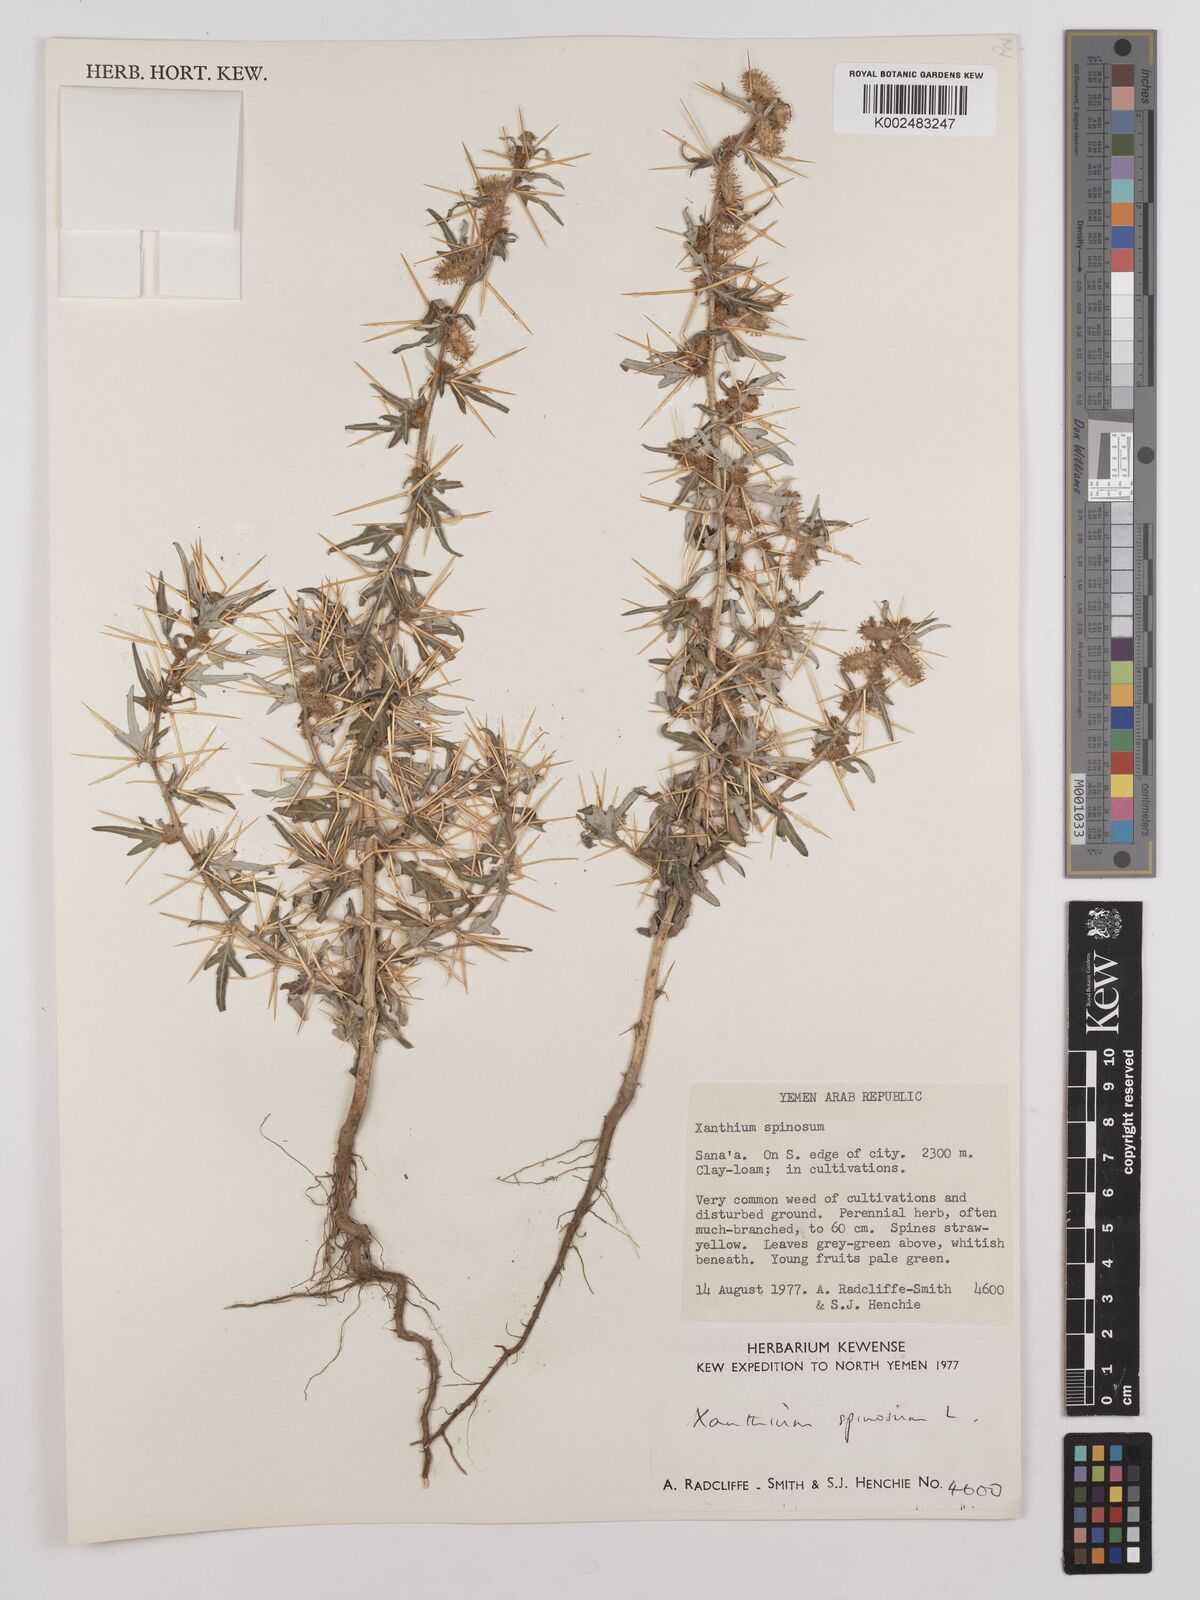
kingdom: Plantae
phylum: Tracheophyta
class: Magnoliopsida
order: Asterales
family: Asteraceae
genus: Xanthium
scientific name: Xanthium spinosum
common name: Spiny cocklebur
